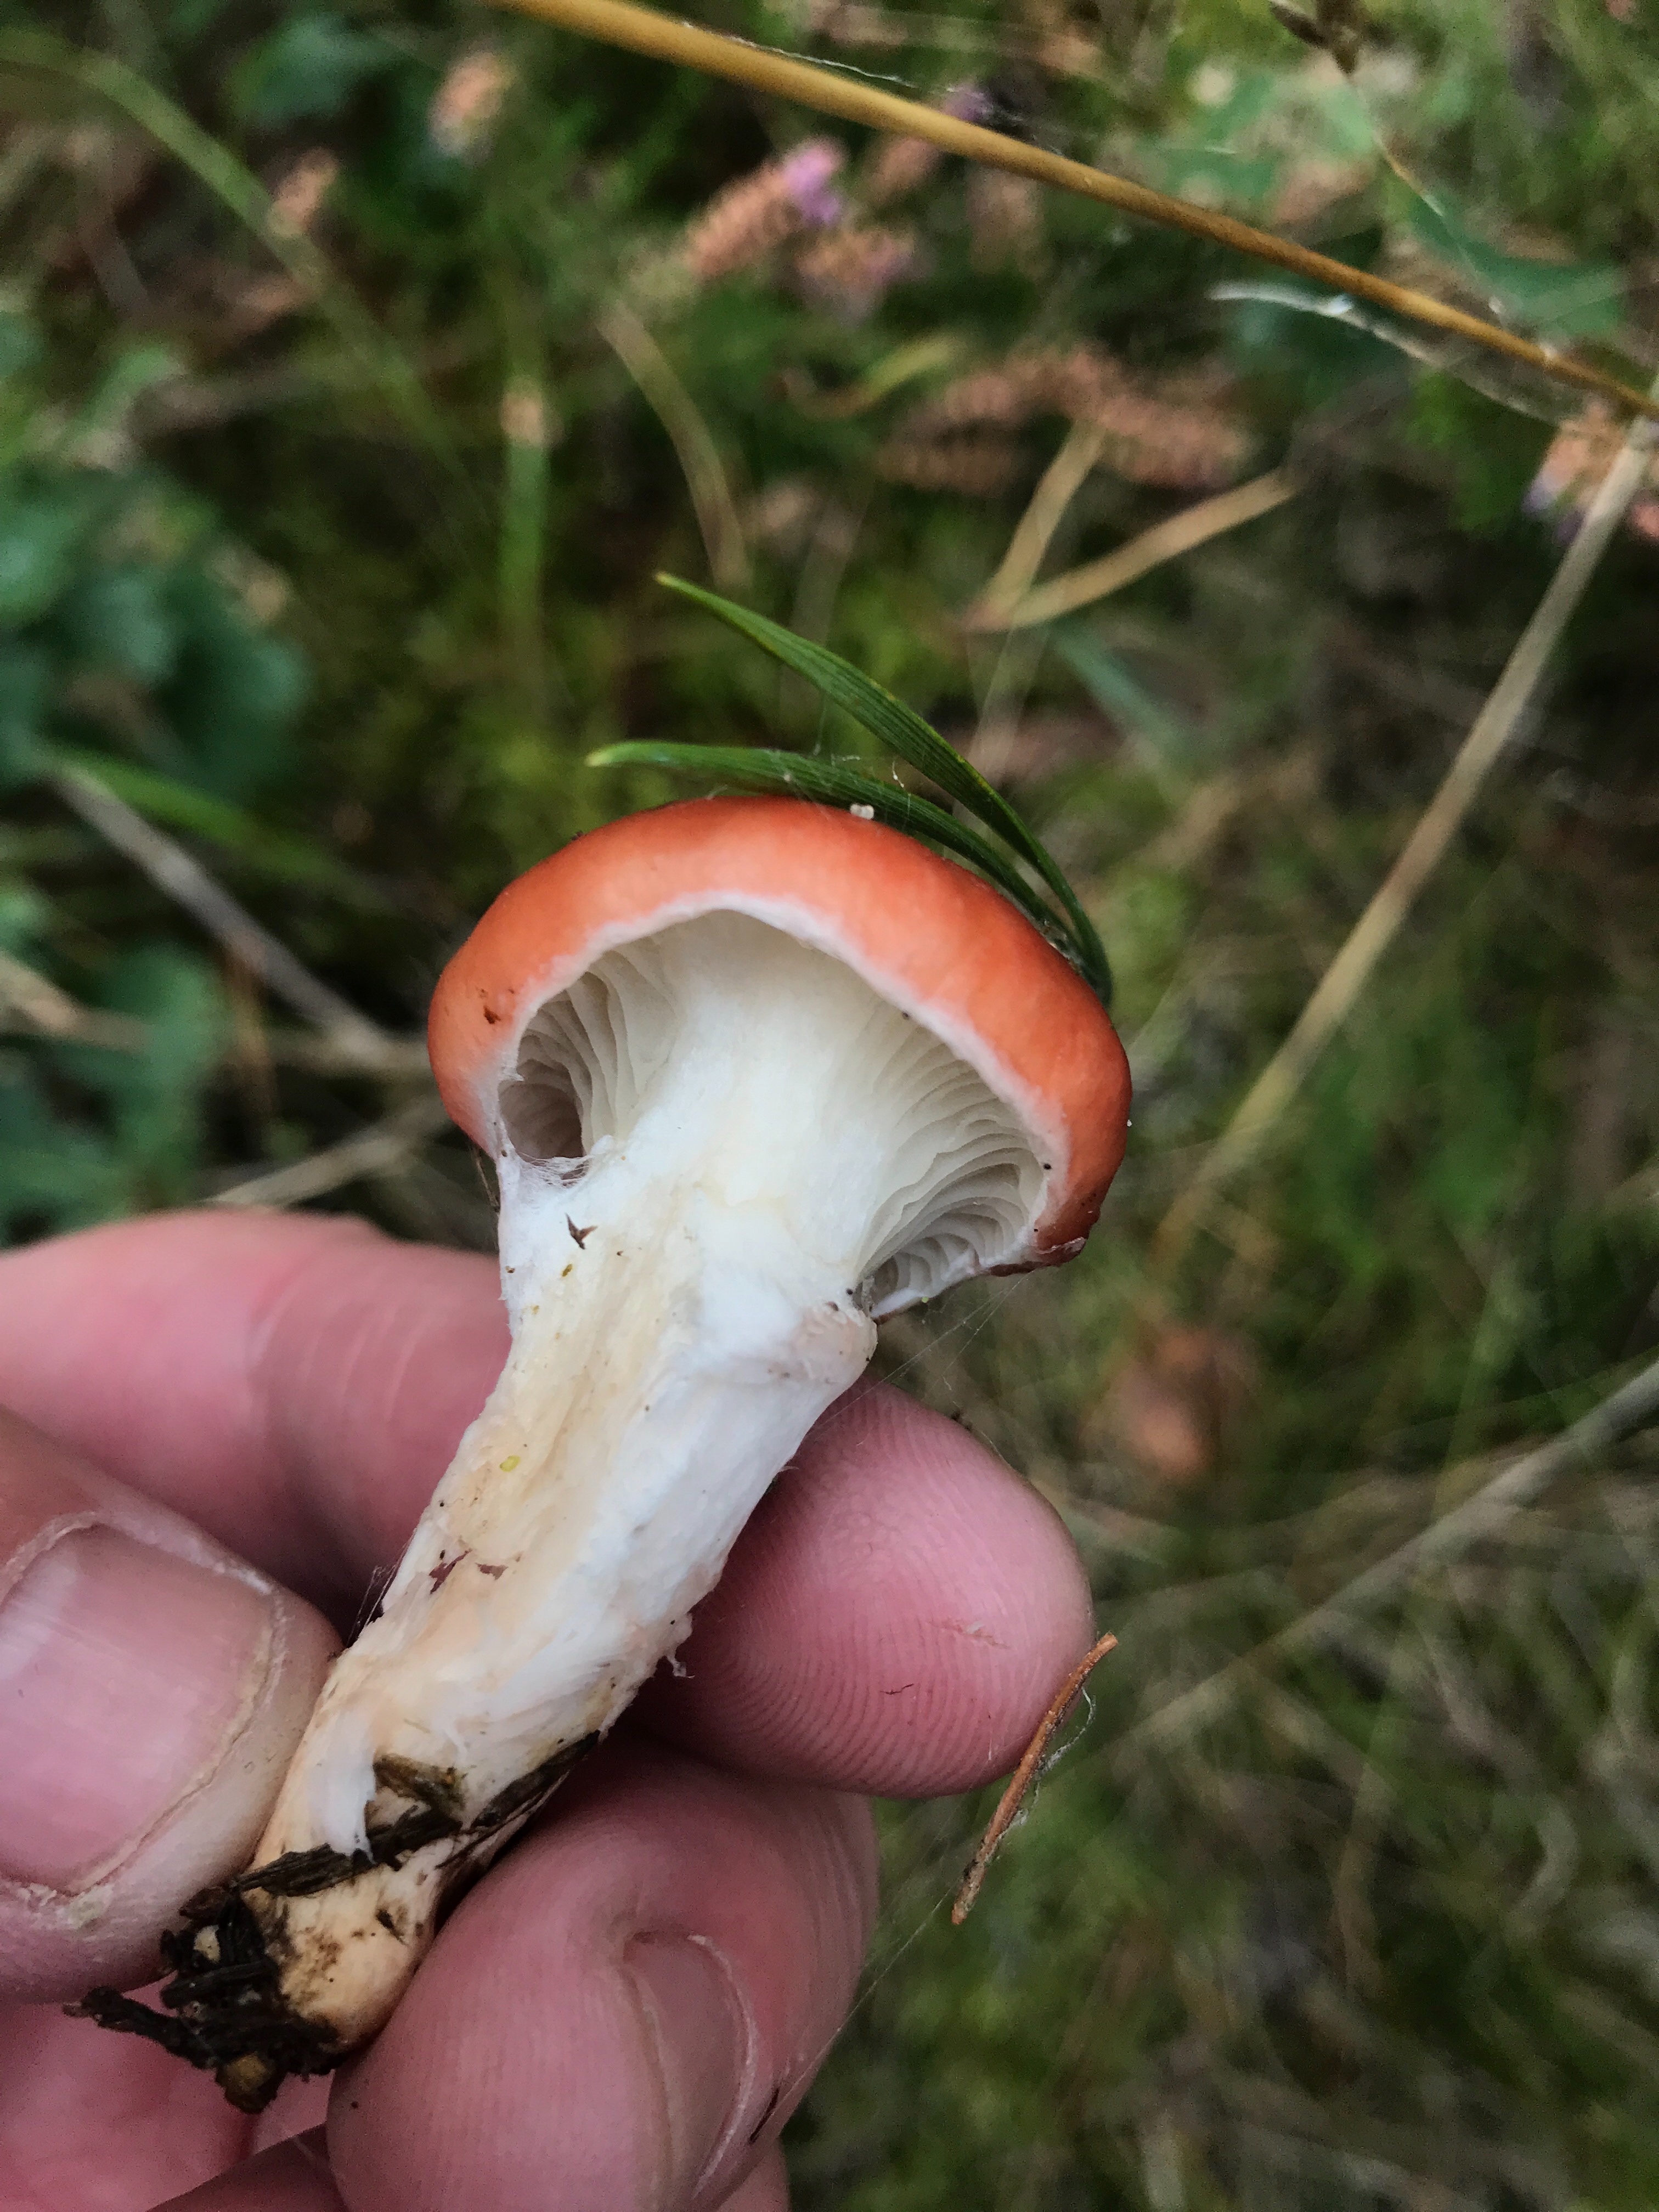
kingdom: Fungi
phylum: Basidiomycota
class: Agaricomycetes
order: Boletales
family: Gomphidiaceae
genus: Gomphidius
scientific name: Gomphidius roseus
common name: rosenrød slimslør
